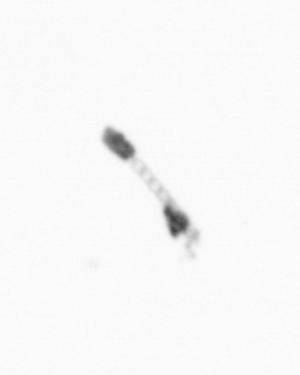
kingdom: Chromista
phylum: Ochrophyta
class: Bacillariophyceae
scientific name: Bacillariophyceae
